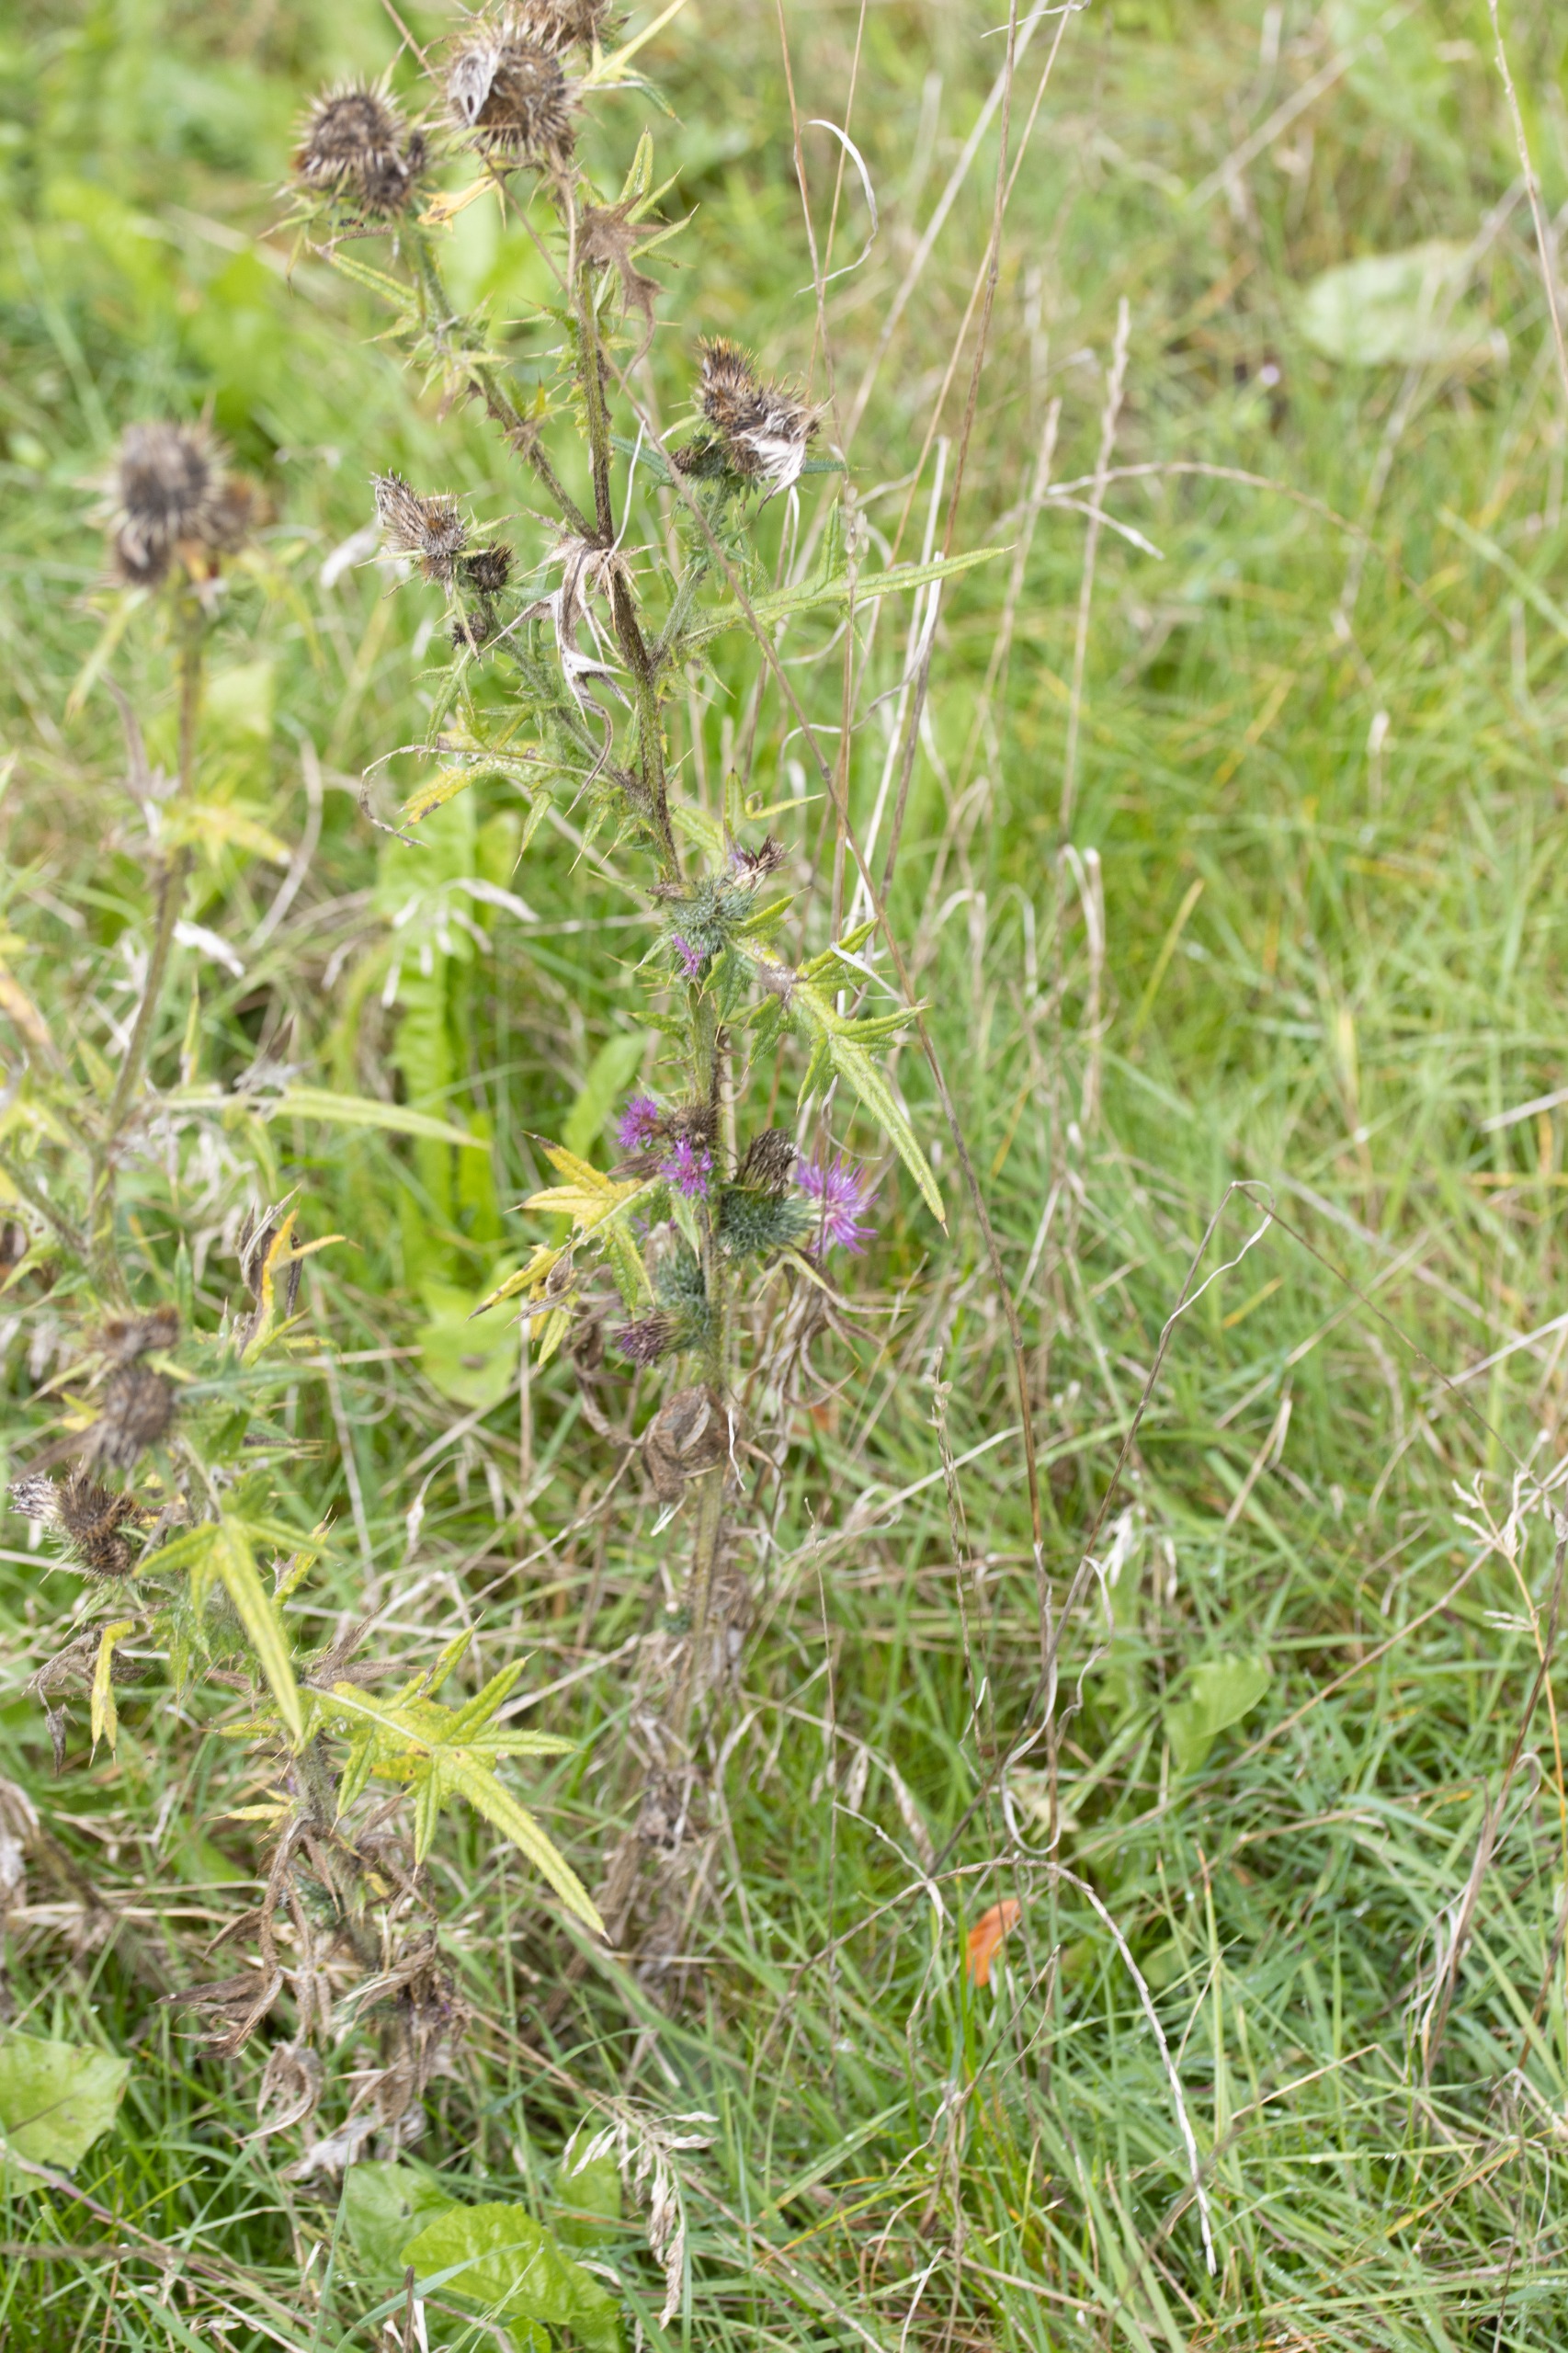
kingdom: Plantae
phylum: Tracheophyta
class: Magnoliopsida
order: Asterales
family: Asteraceae
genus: Cirsium
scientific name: Cirsium vulgare
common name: Horse-tidsel
